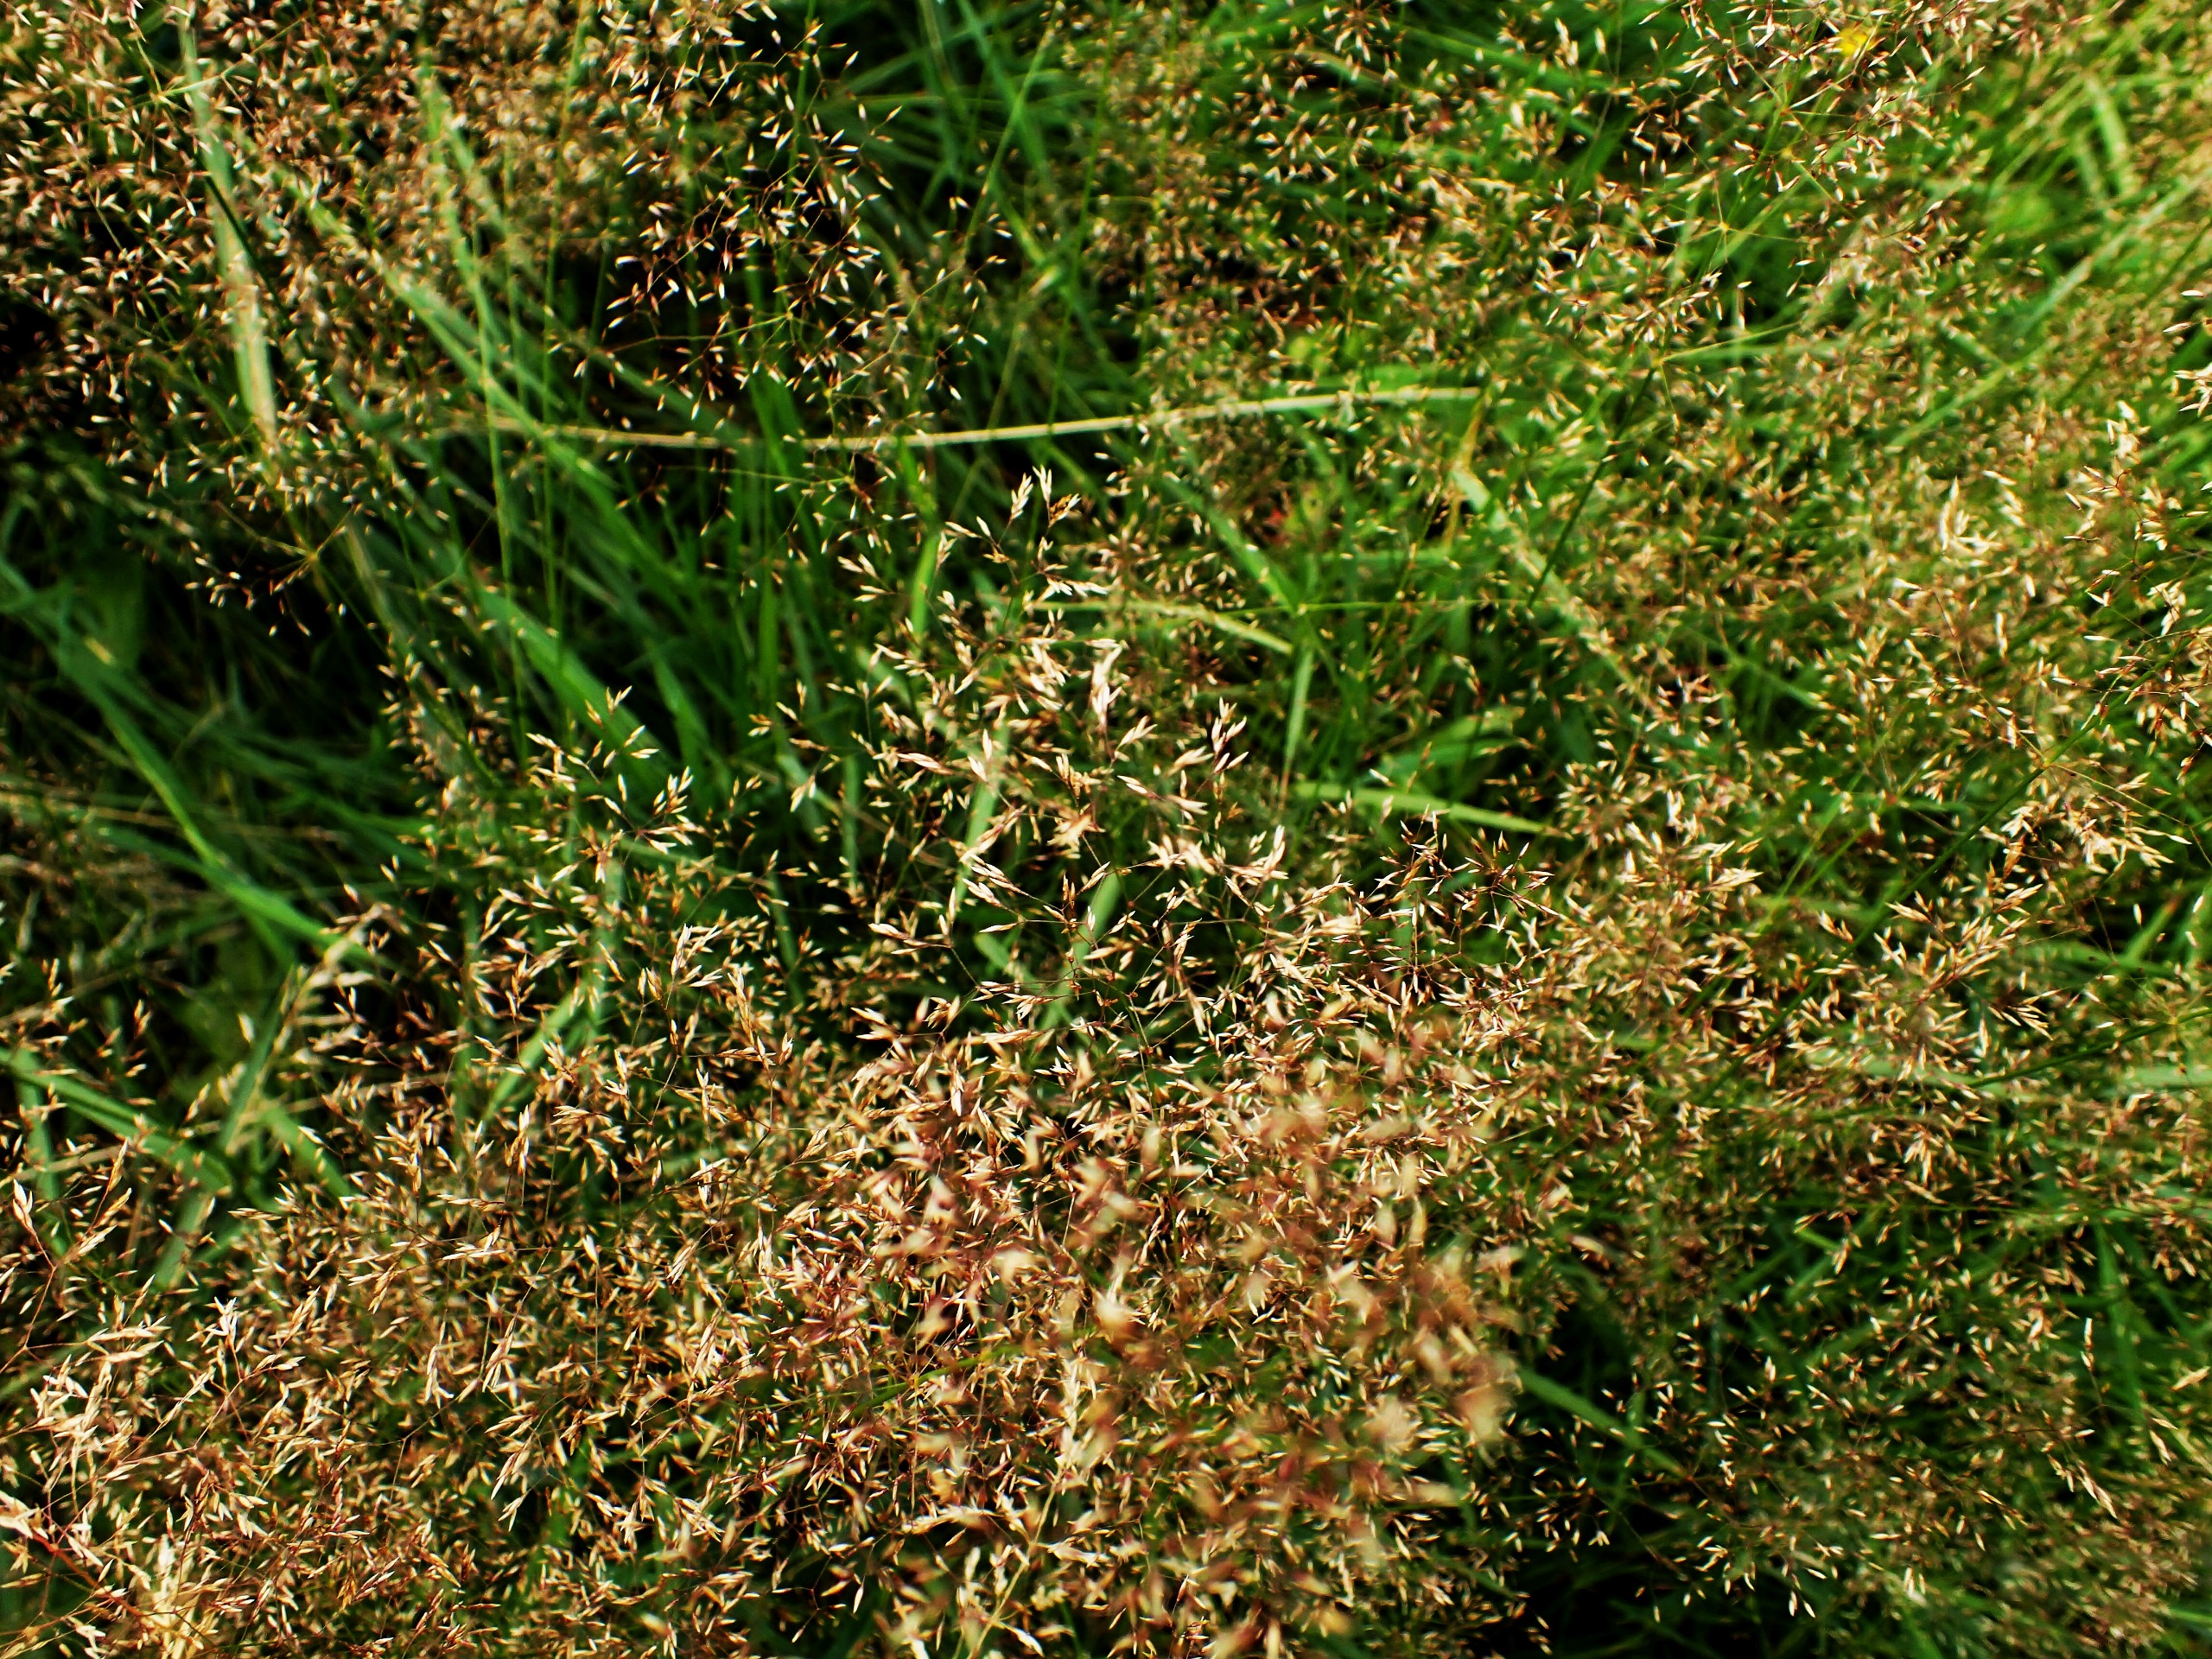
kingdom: Plantae
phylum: Tracheophyta
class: Liliopsida
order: Poales
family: Poaceae
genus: Agrostis
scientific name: Agrostis capillaris
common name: Almindelig hvene
